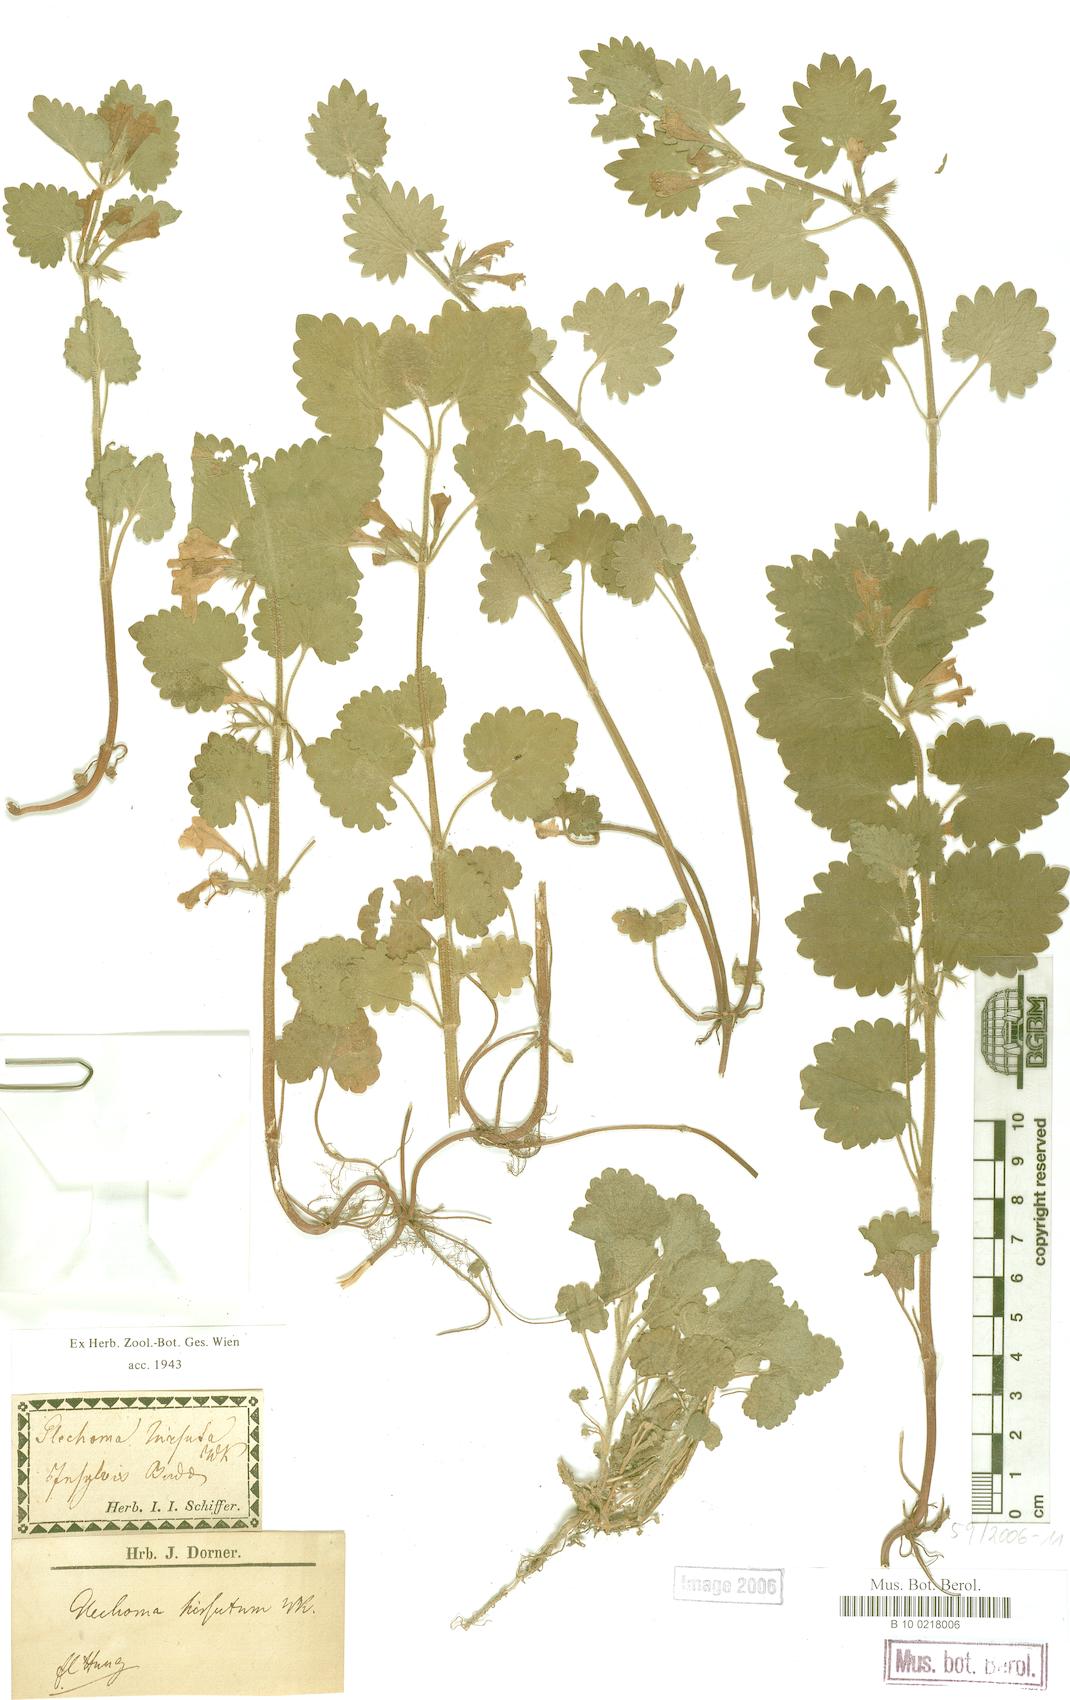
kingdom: Plantae
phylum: Tracheophyta
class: Magnoliopsida
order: Lamiales
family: Lamiaceae
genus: Glechoma
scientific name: Glechoma hirsuta
